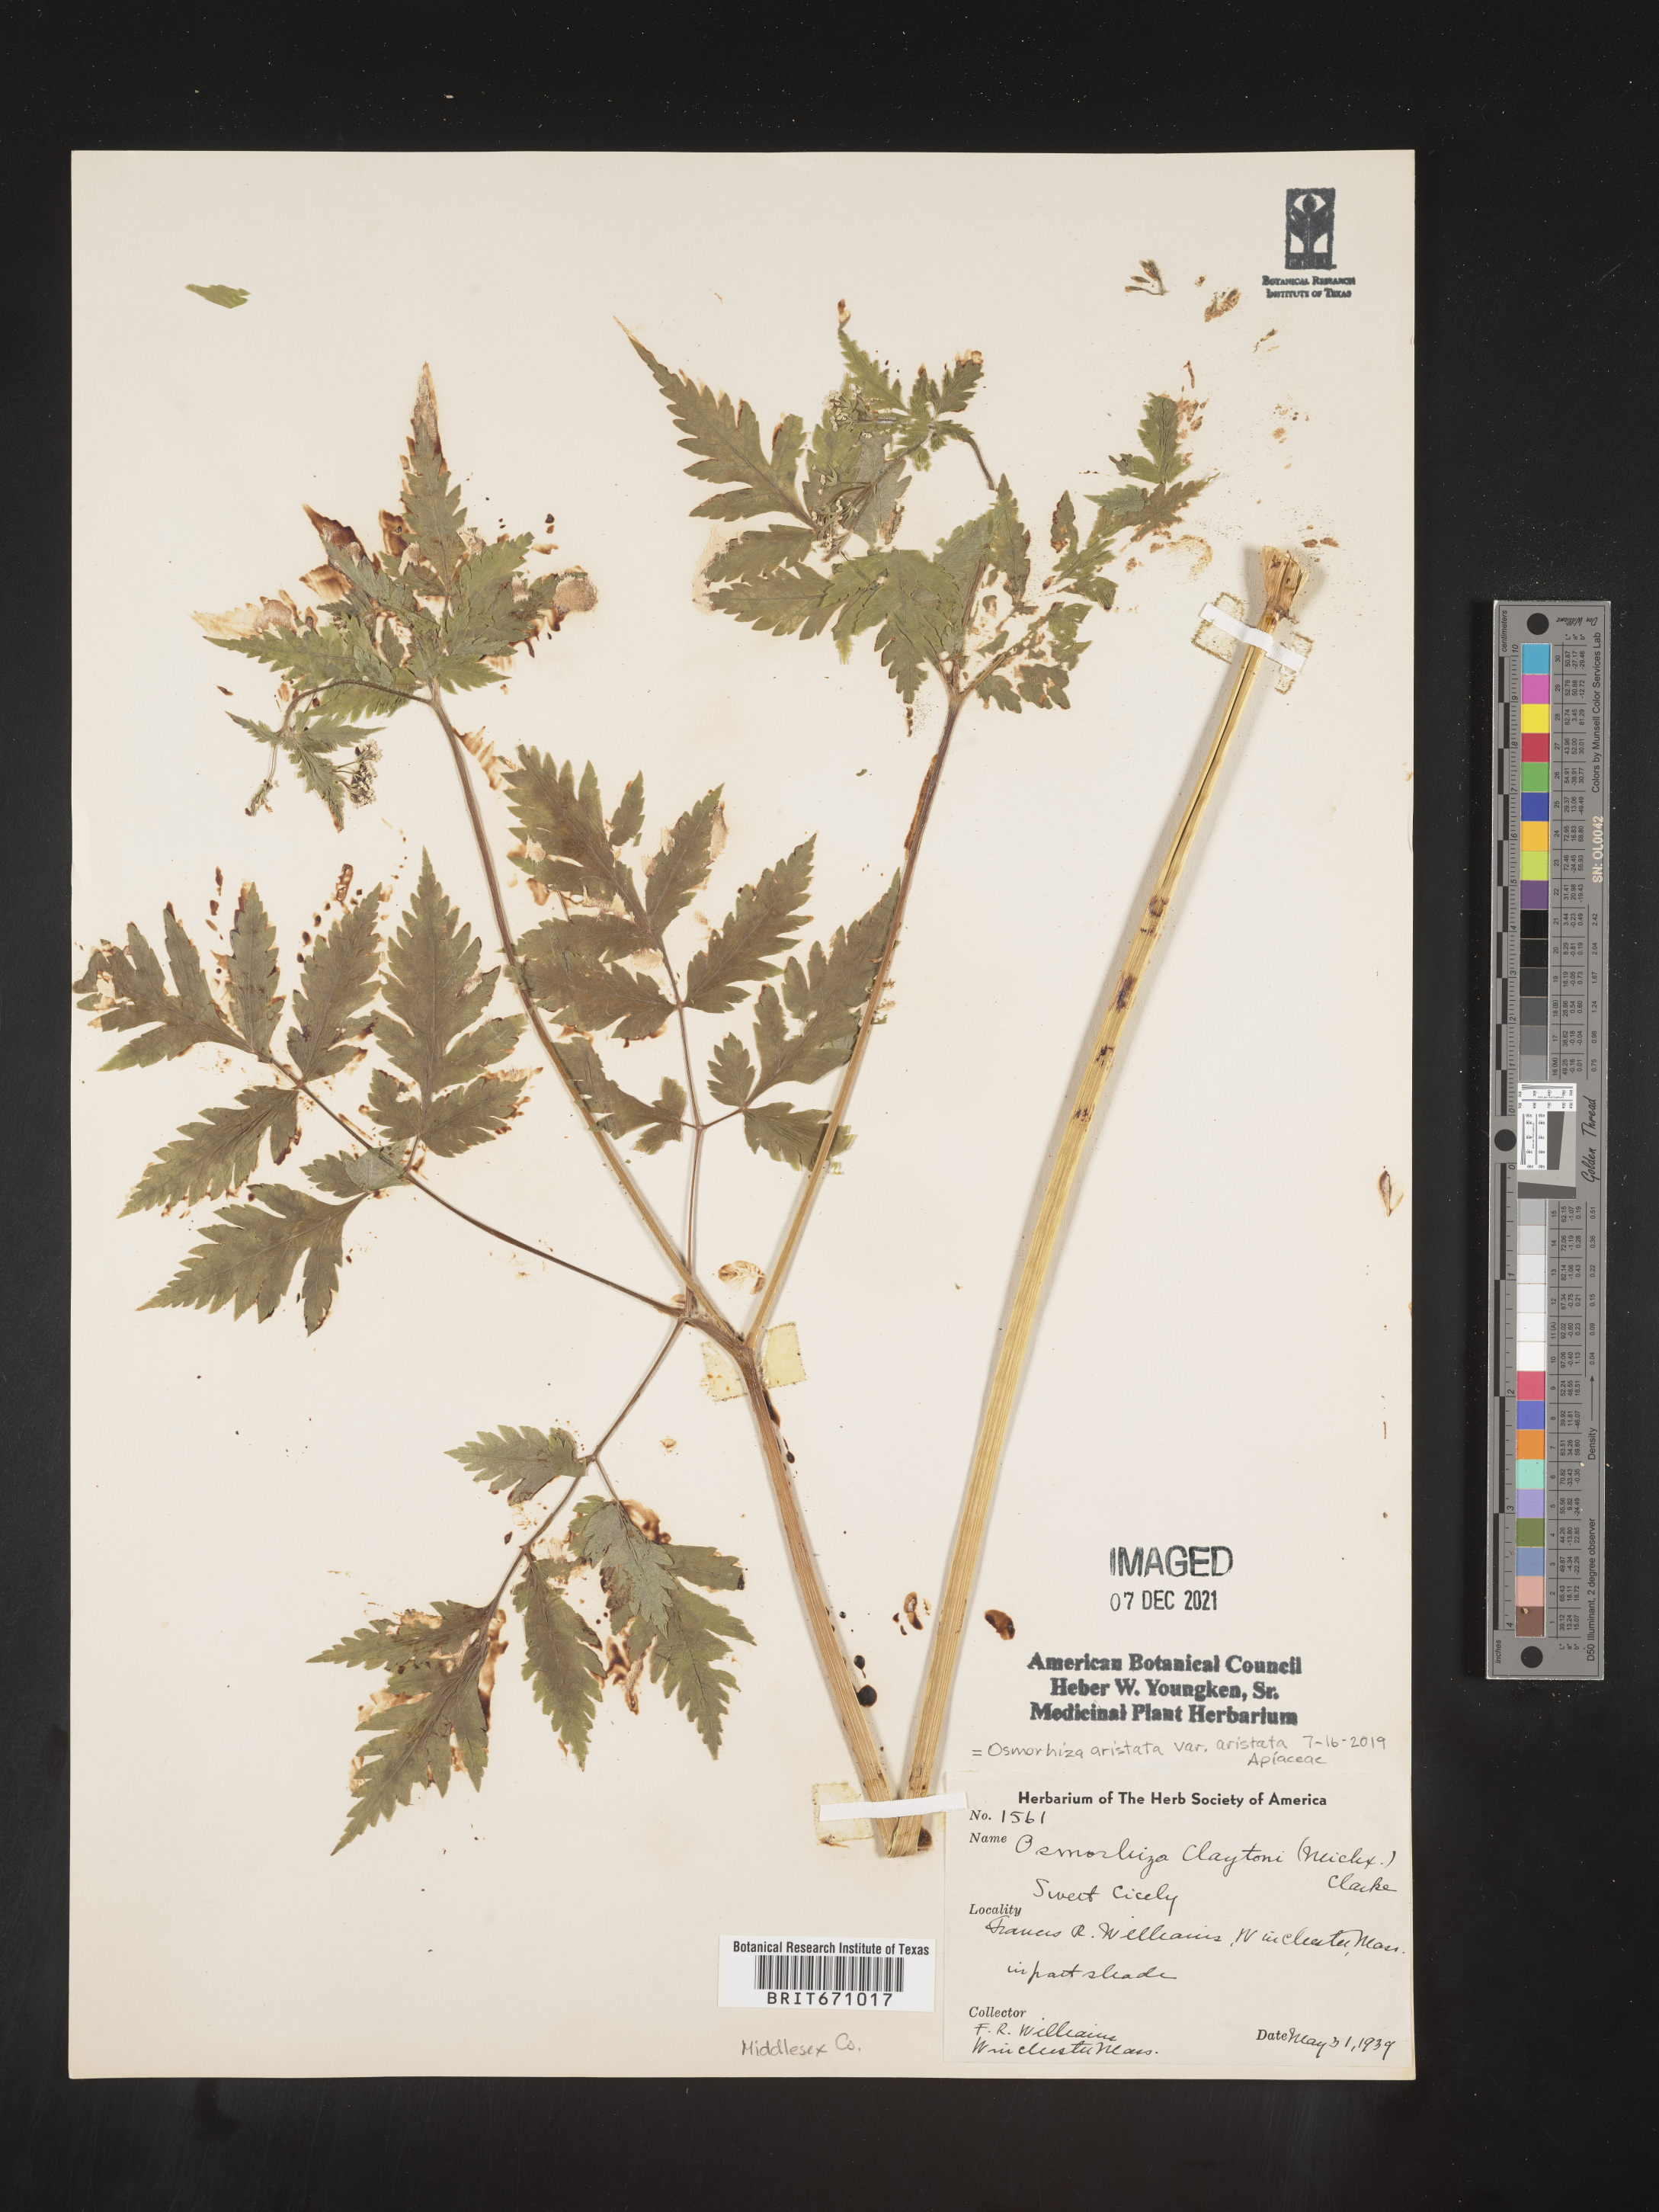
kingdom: Plantae
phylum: Tracheophyta
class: Magnoliopsida
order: Apiales
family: Apiaceae
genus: Osmorhiza
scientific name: Osmorhiza claytonii
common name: Hairy sweet cicely
